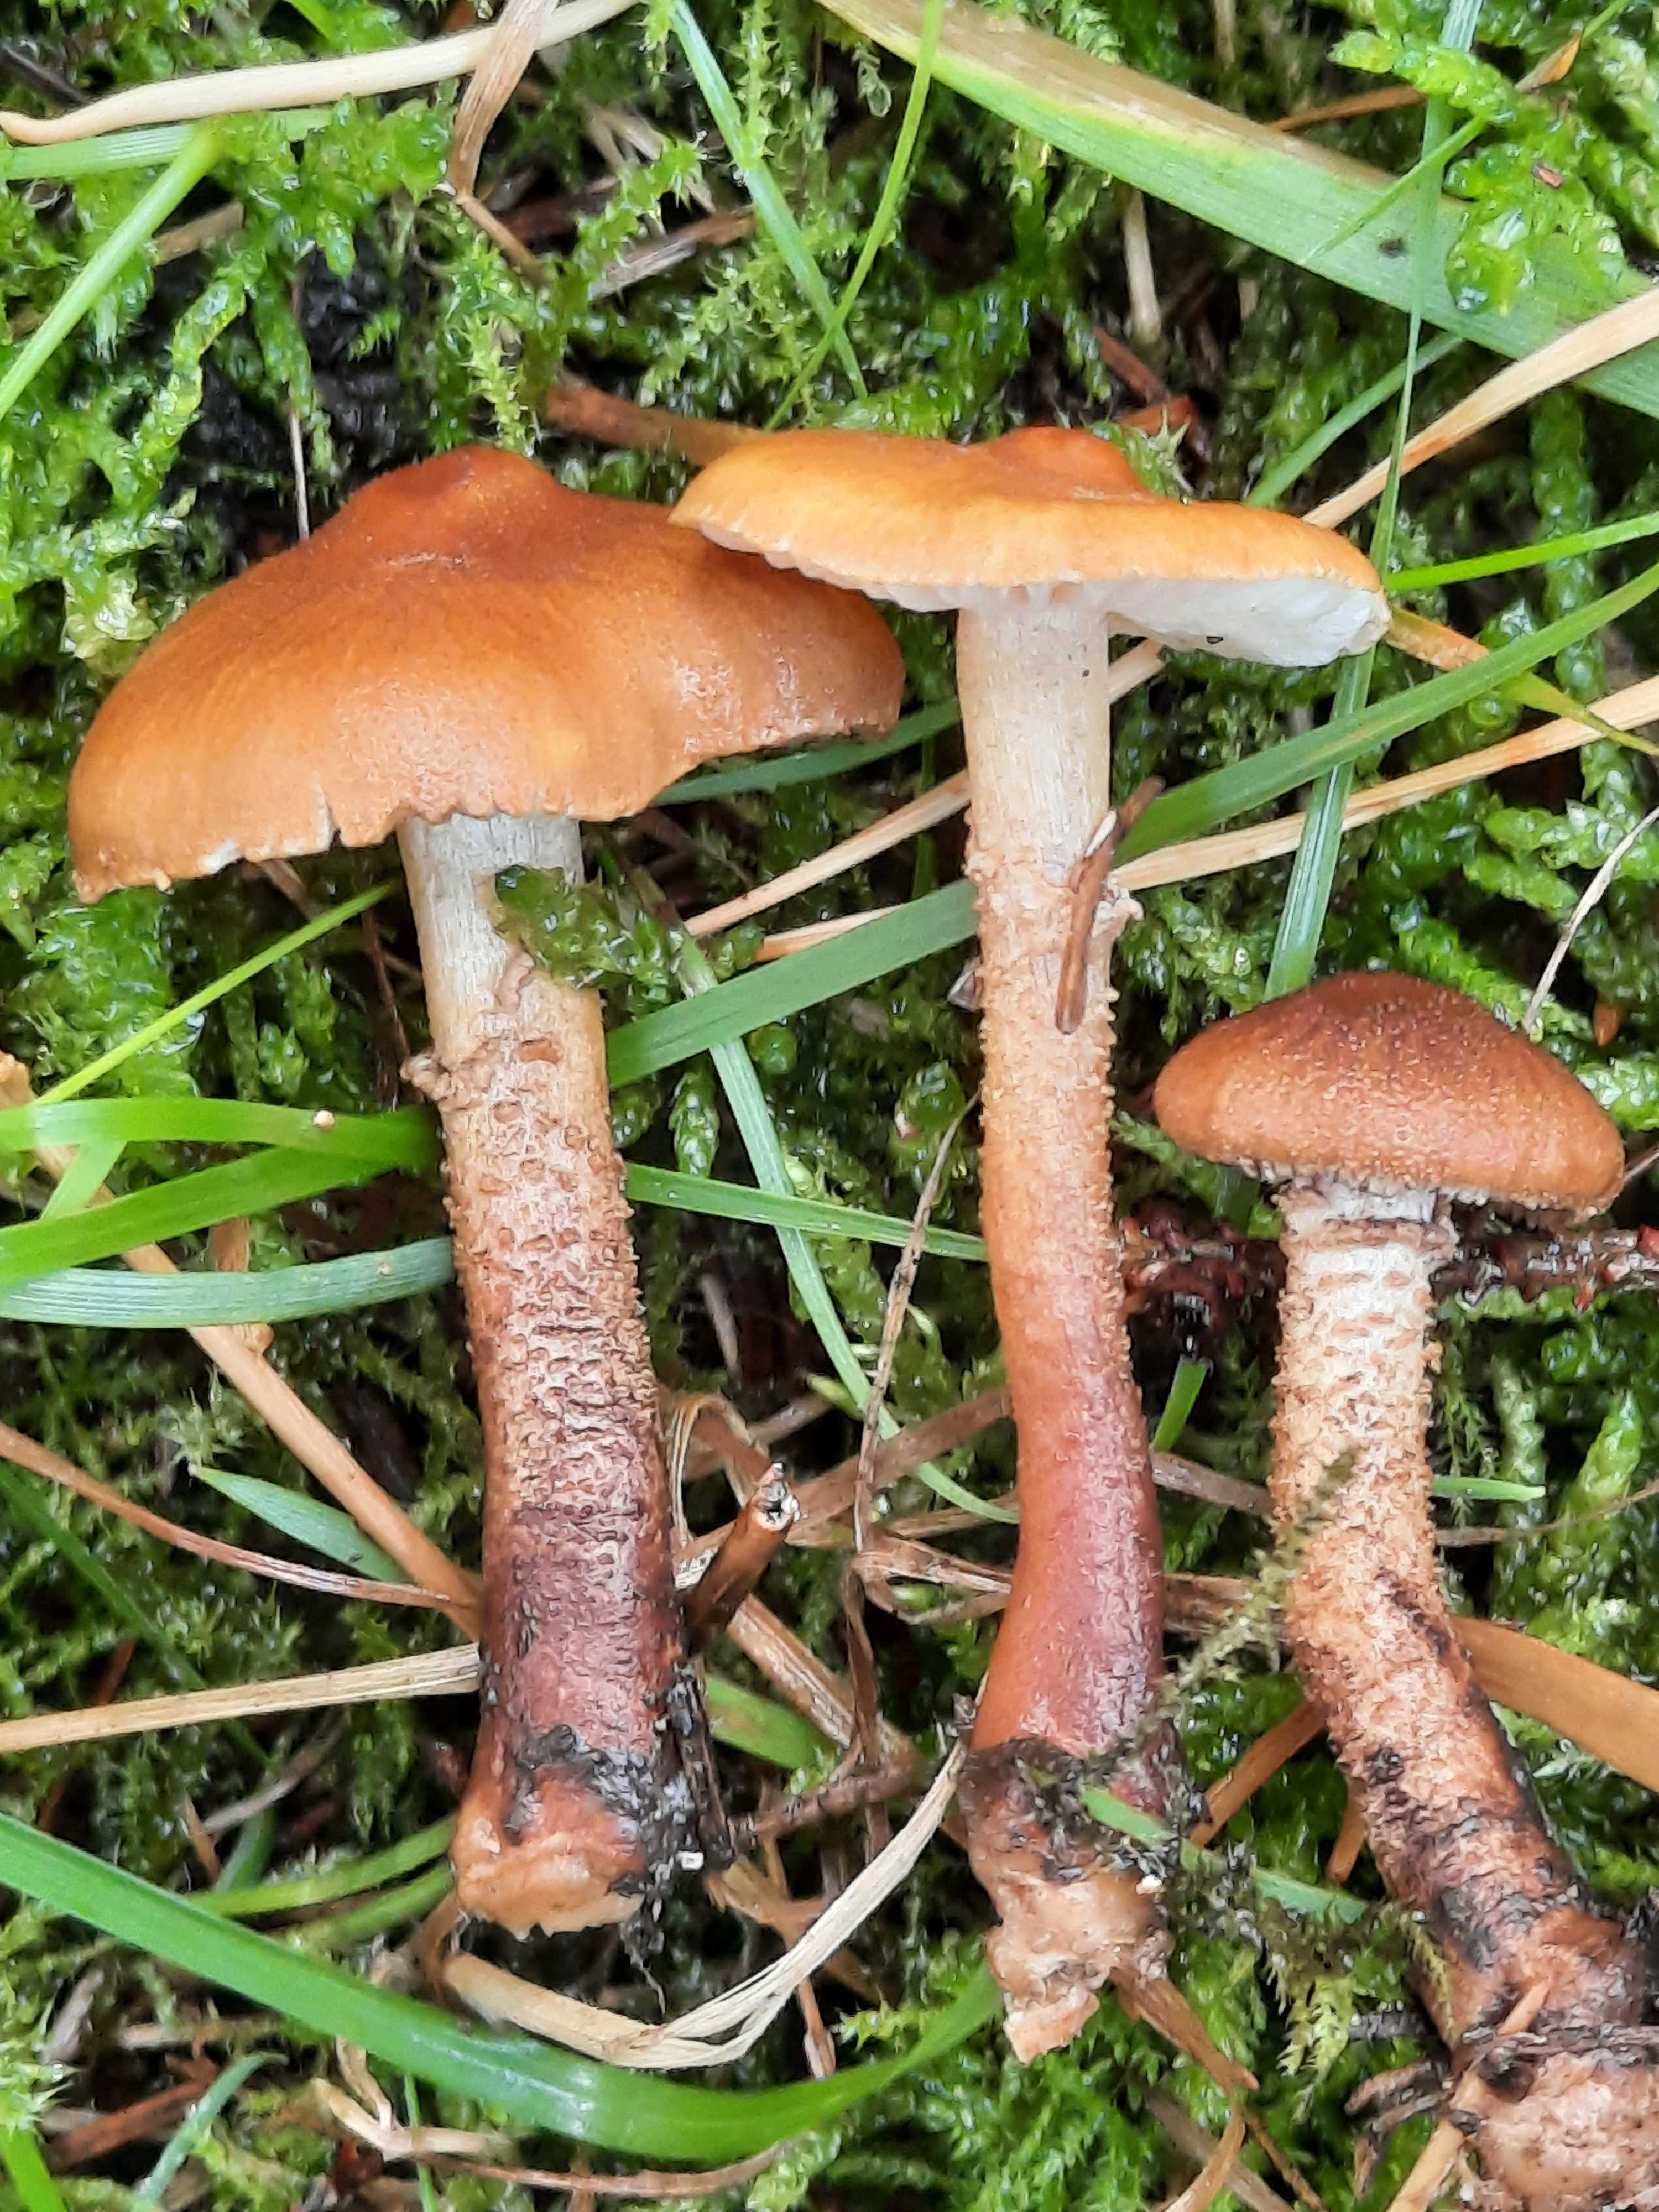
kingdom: Fungi
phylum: Basidiomycota
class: Agaricomycetes
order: Agaricales
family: Tricholomataceae
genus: Cystoderma
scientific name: Cystoderma amianthinum
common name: okkergul grynhat
